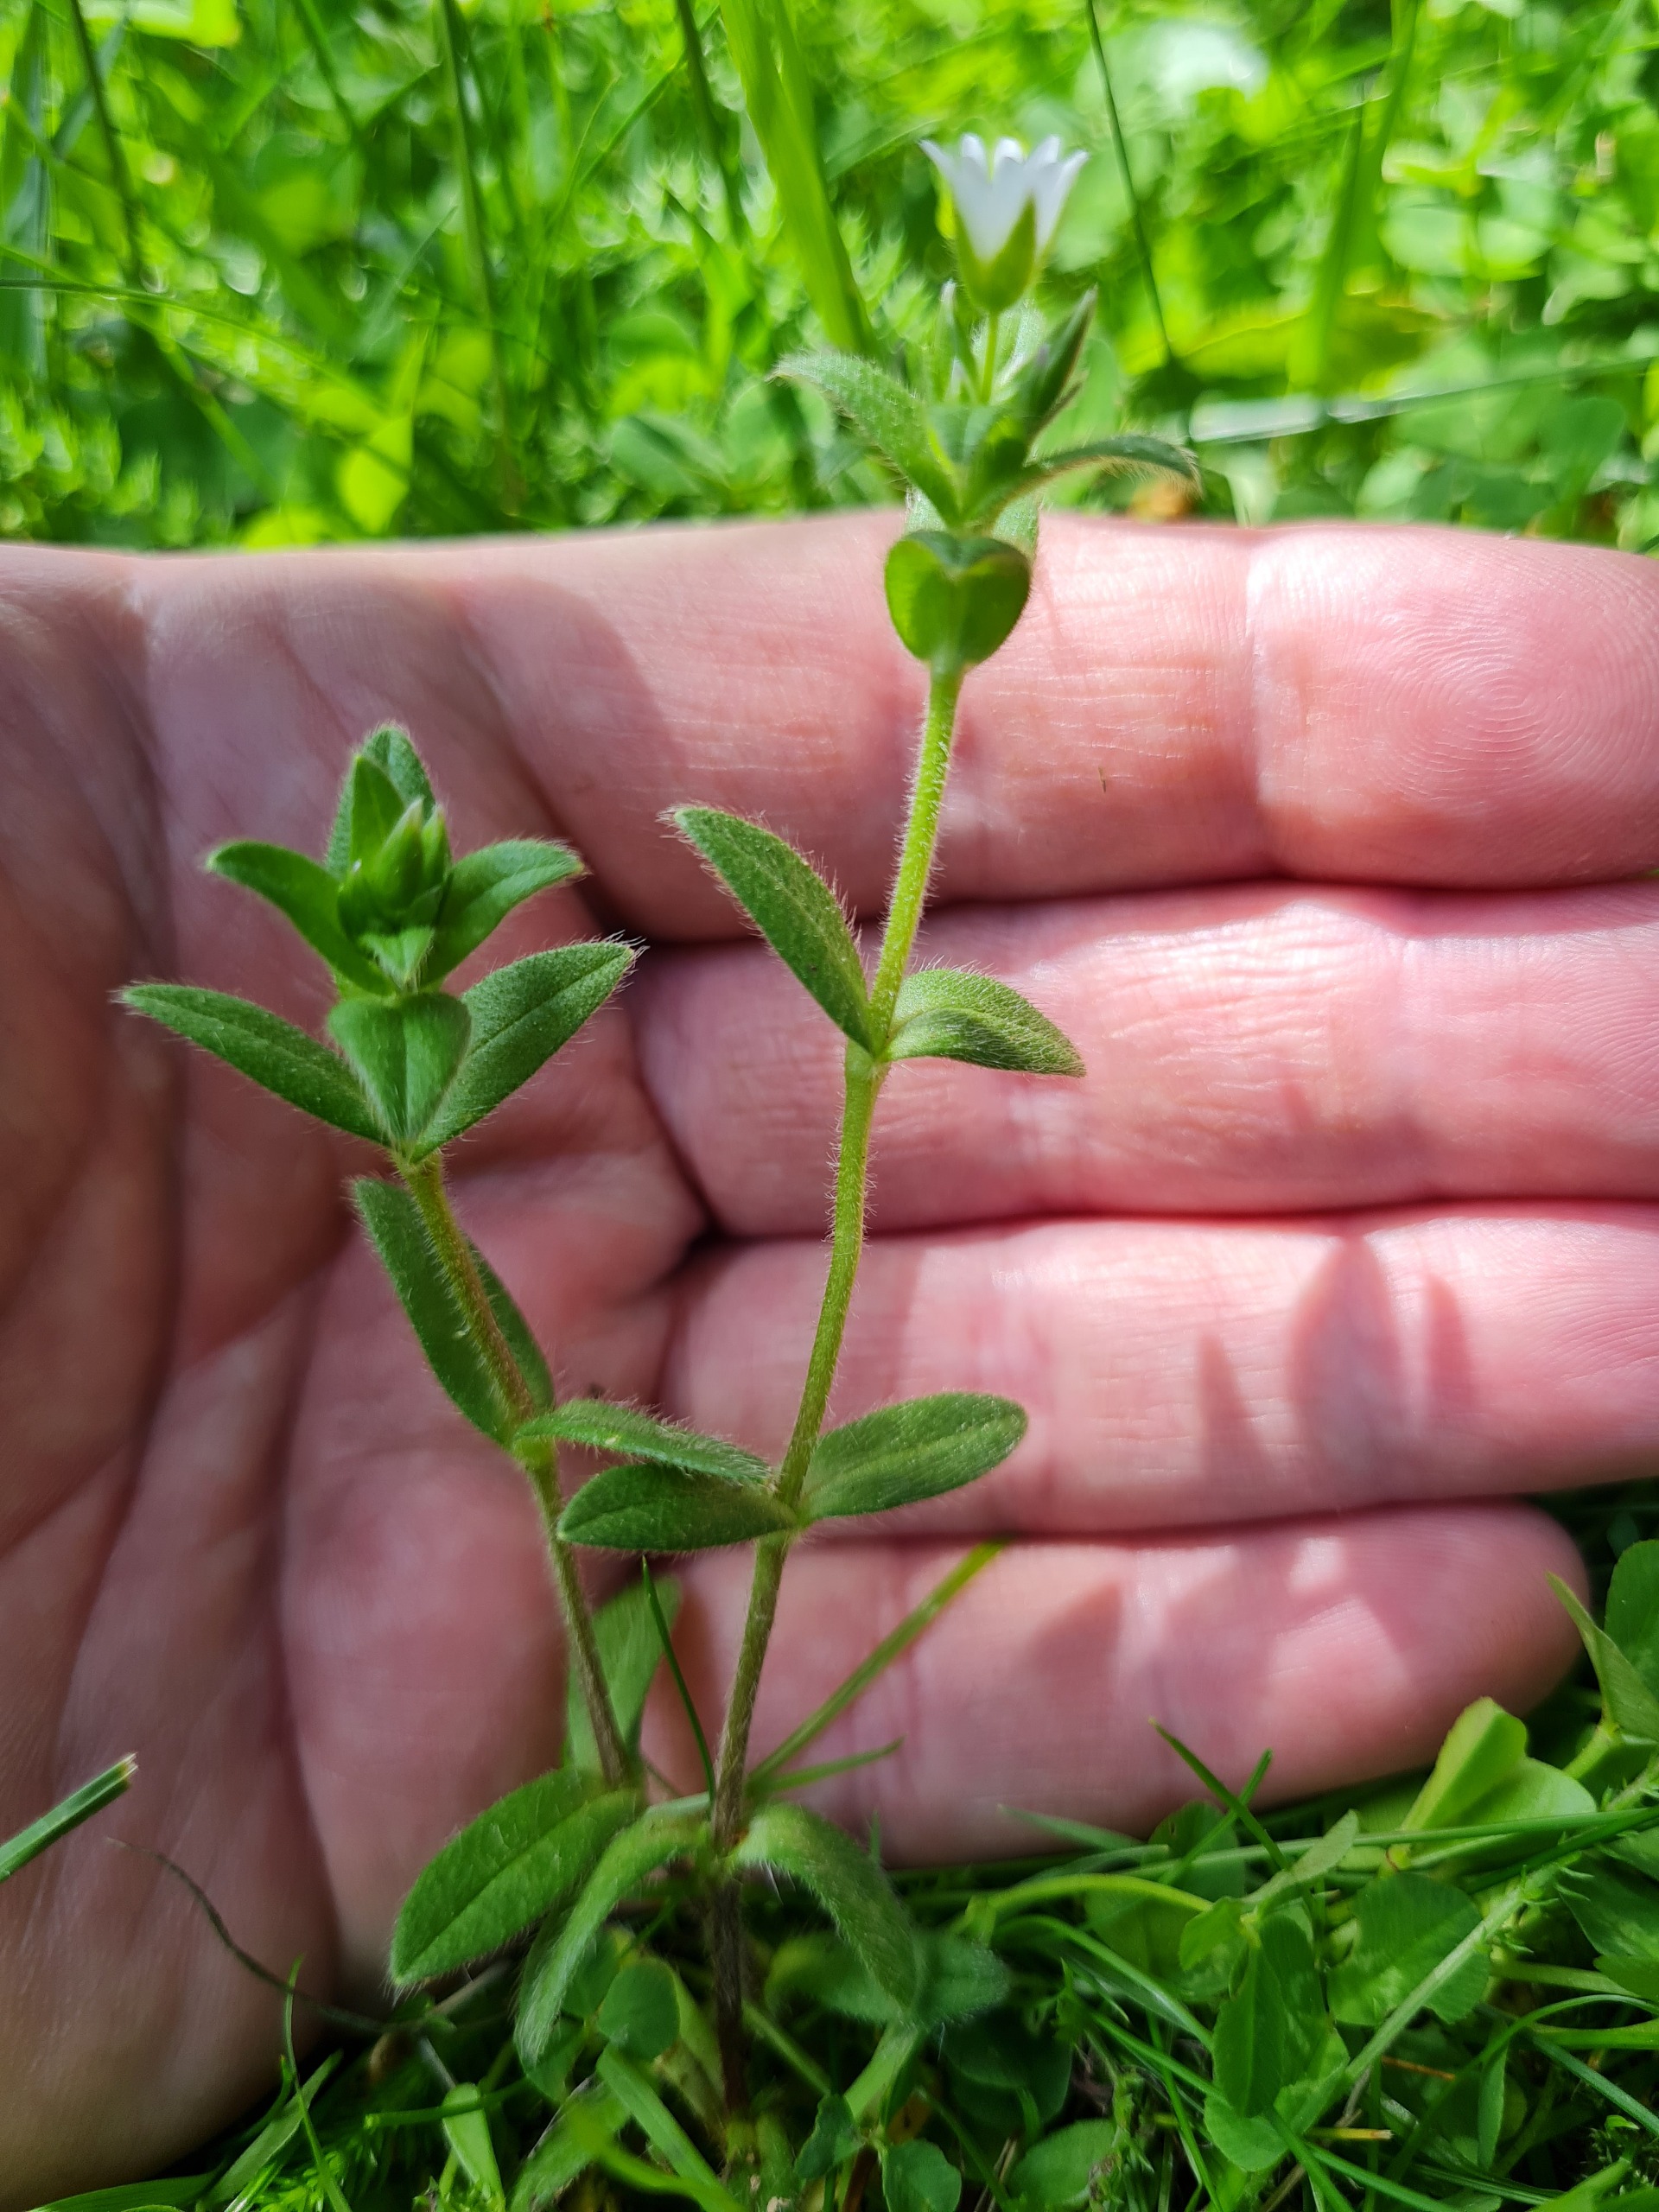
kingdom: Plantae
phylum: Tracheophyta
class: Magnoliopsida
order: Caryophyllales
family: Caryophyllaceae
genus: Cerastium
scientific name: Cerastium fontanum
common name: Almindelig hønsetarm
